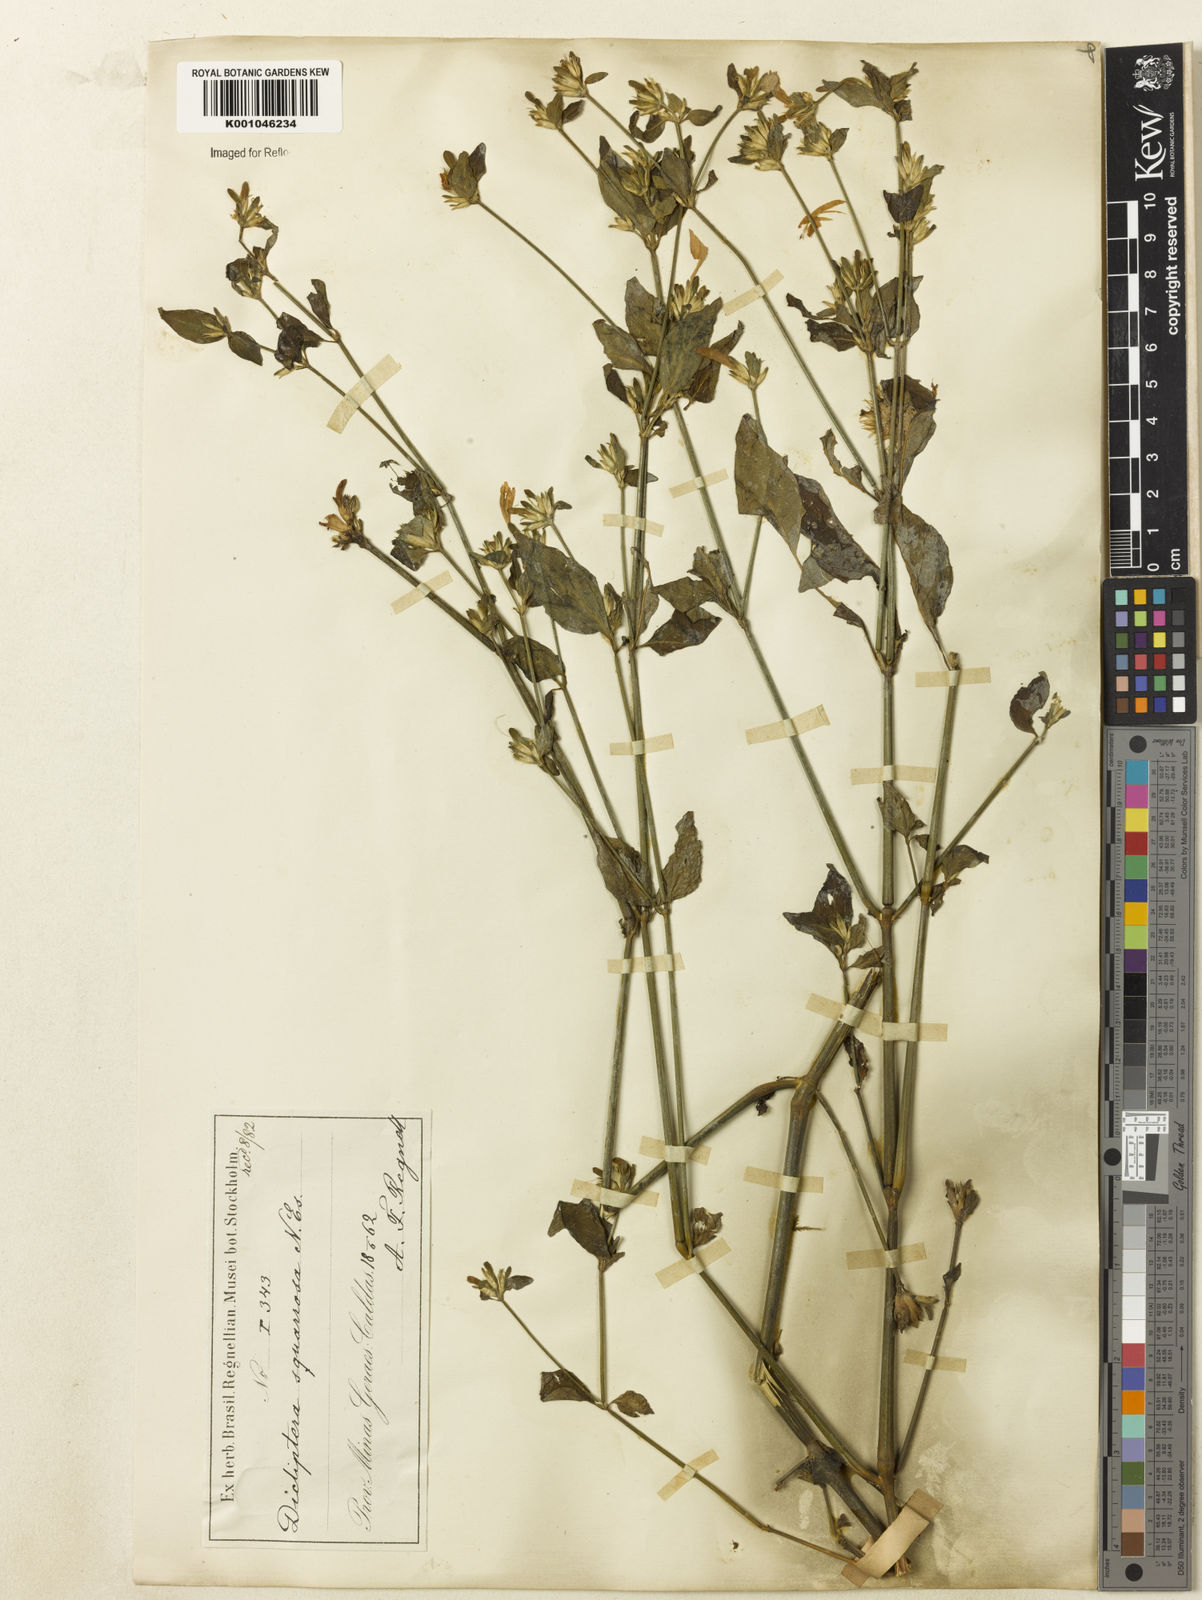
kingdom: Plantae
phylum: Tracheophyta
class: Magnoliopsida
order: Lamiales
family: Acanthaceae
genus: Dicliptera
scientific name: Dicliptera squarrosa
